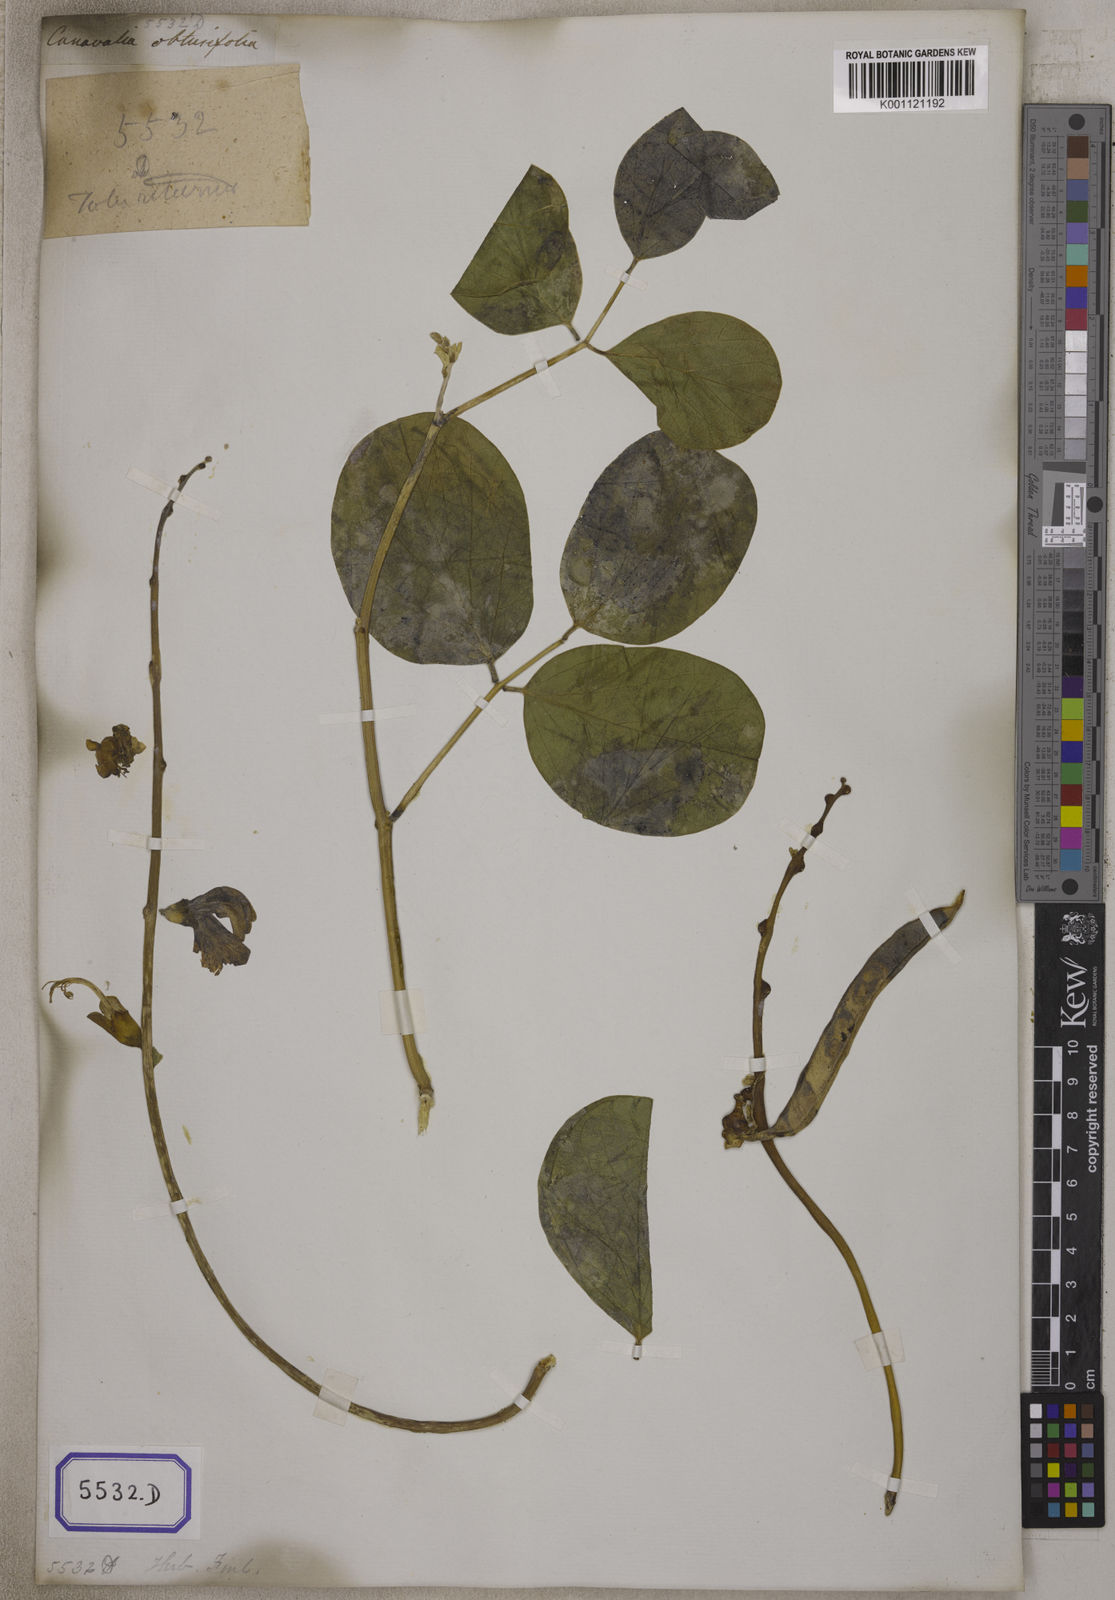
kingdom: Plantae
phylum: Tracheophyta
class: Magnoliopsida
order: Fabales
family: Fabaceae
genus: Canavalia
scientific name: Canavalia rosea
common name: Beach-bean
